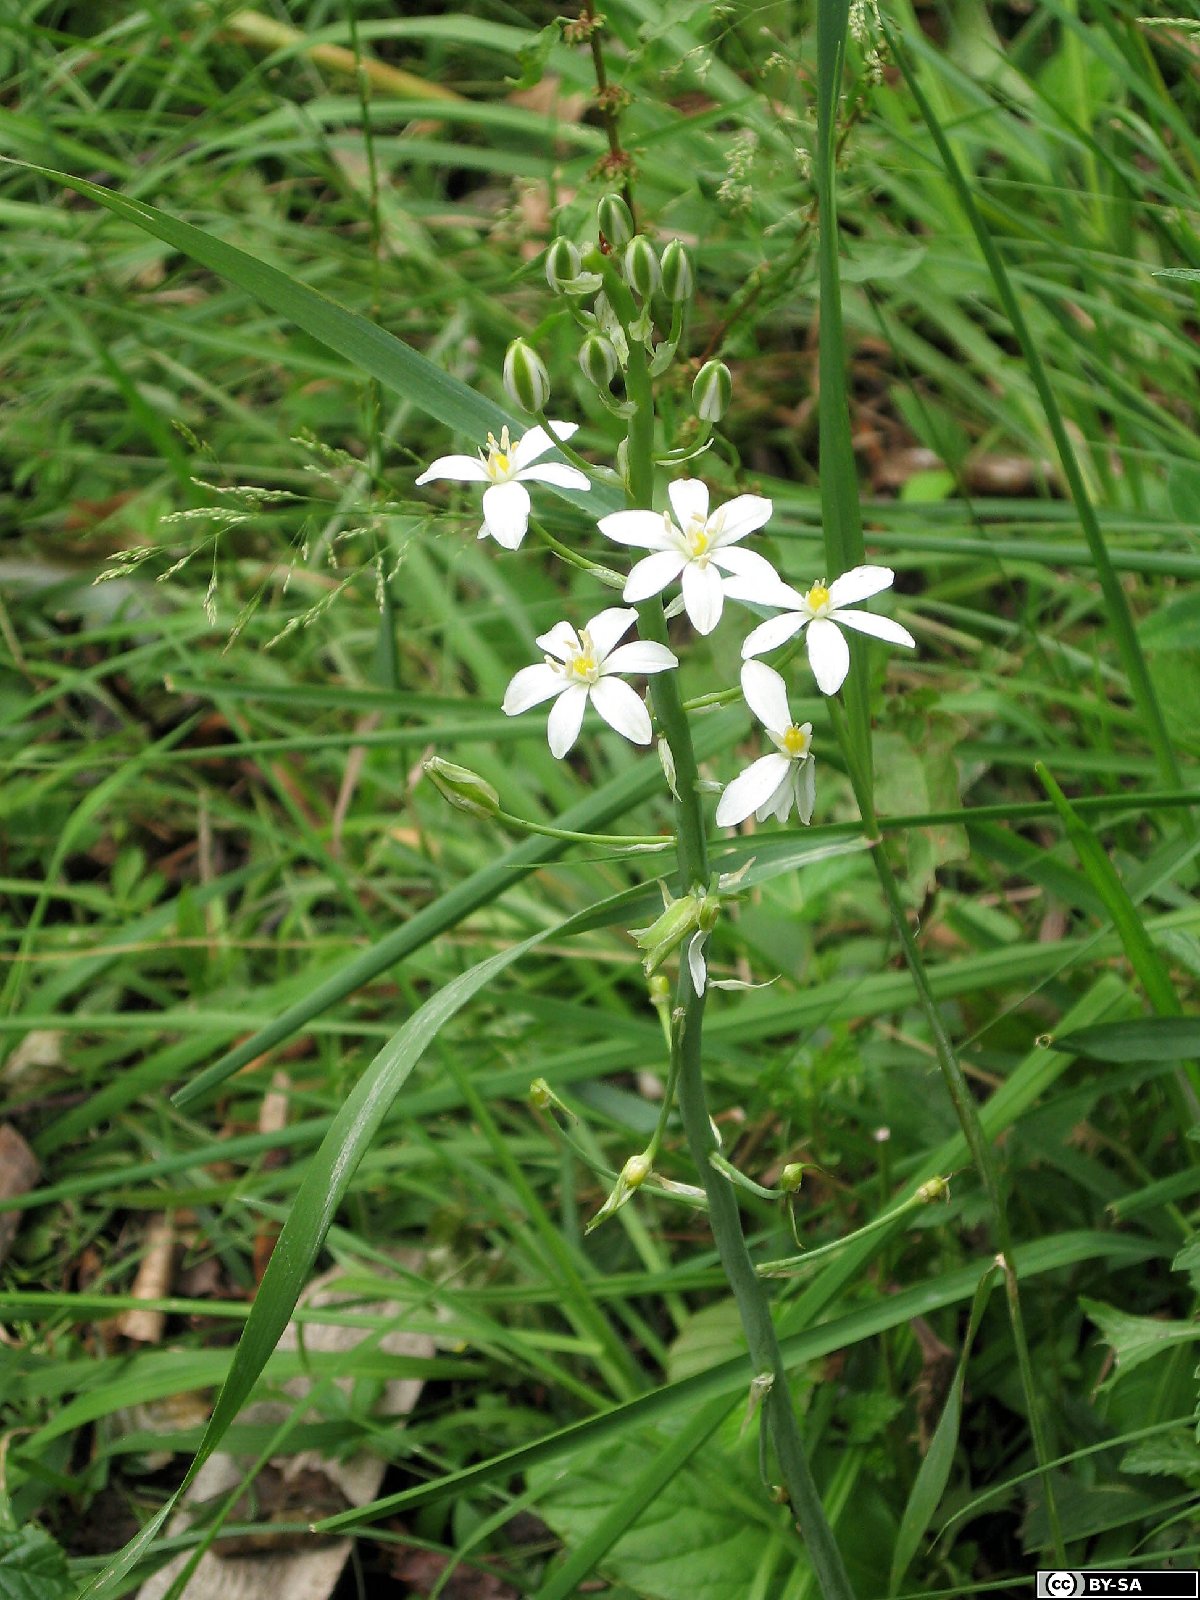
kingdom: Plantae
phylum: Tracheophyta
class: Liliopsida
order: Asparagales
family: Asparagaceae
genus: Ornithogalum
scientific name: Ornithogalum pyramidale
